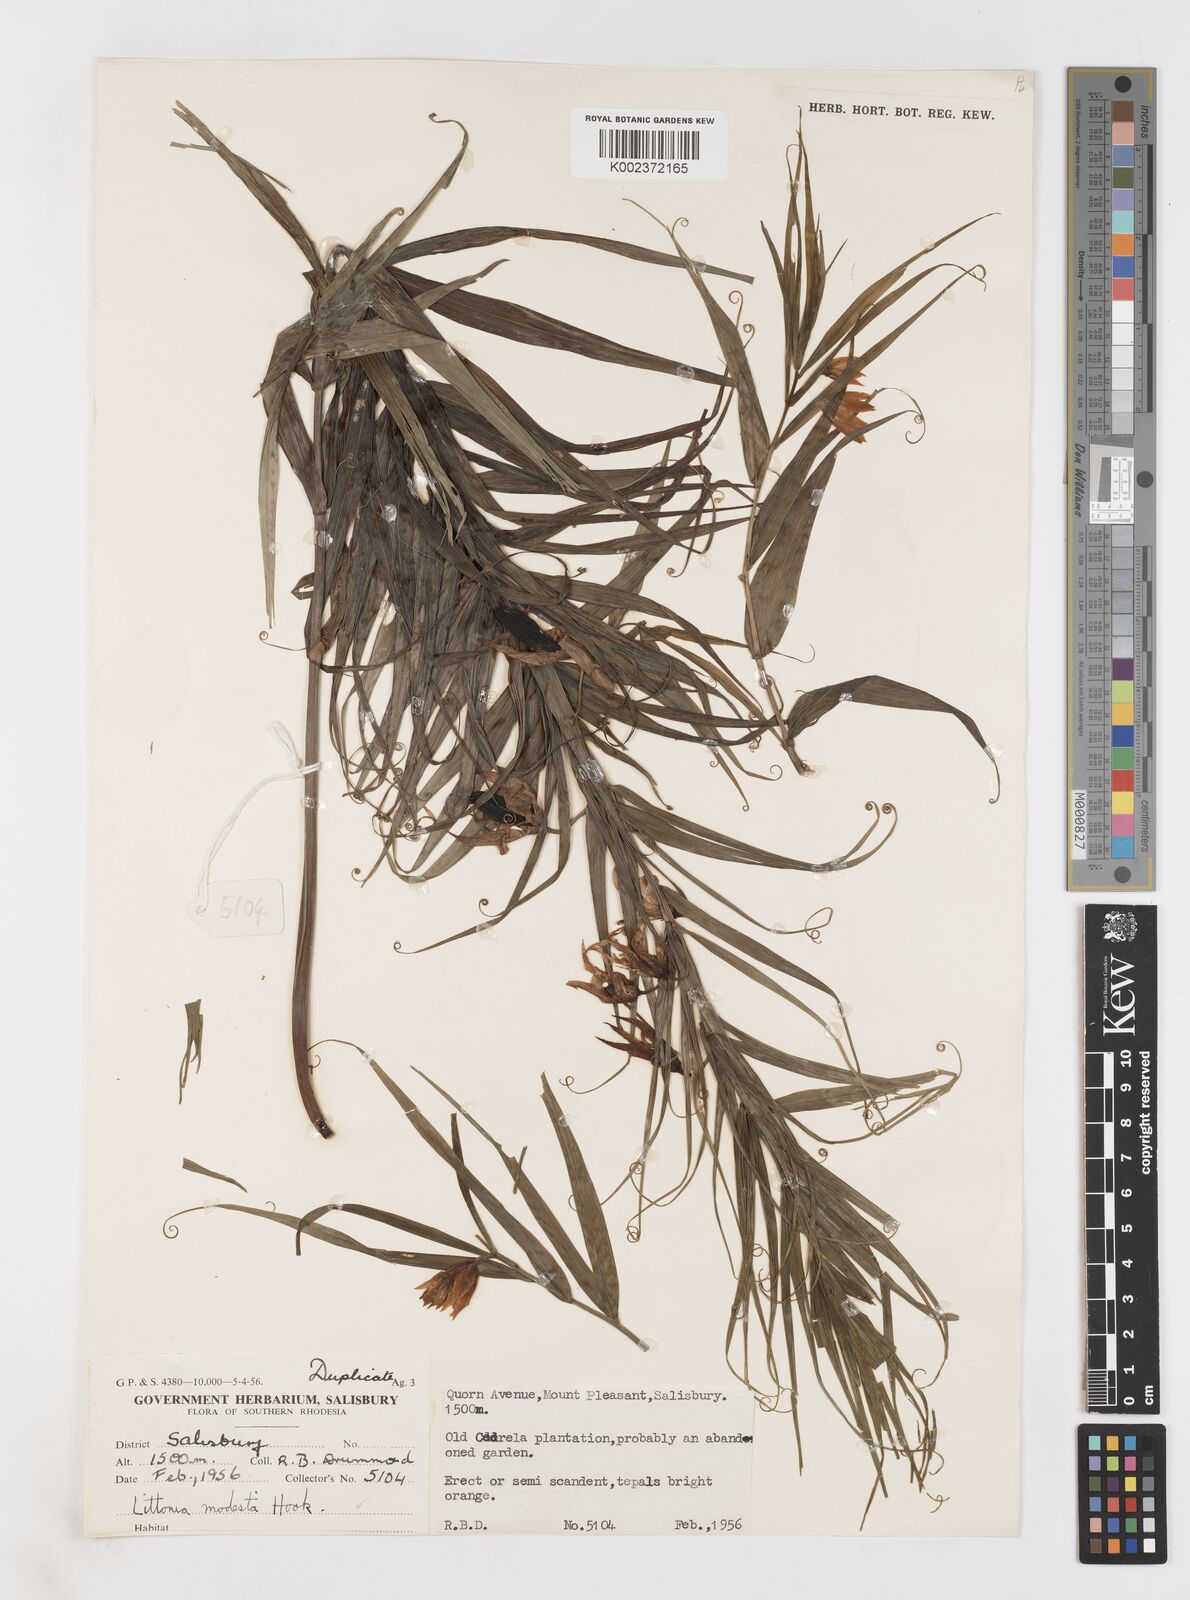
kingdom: Plantae
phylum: Tracheophyta
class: Liliopsida
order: Liliales
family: Colchicaceae
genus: Gloriosa
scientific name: Gloriosa modesta
